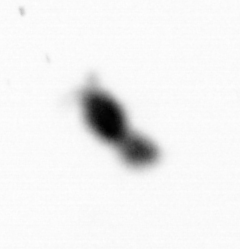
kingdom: Animalia
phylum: Arthropoda
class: Copepoda
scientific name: Copepoda
